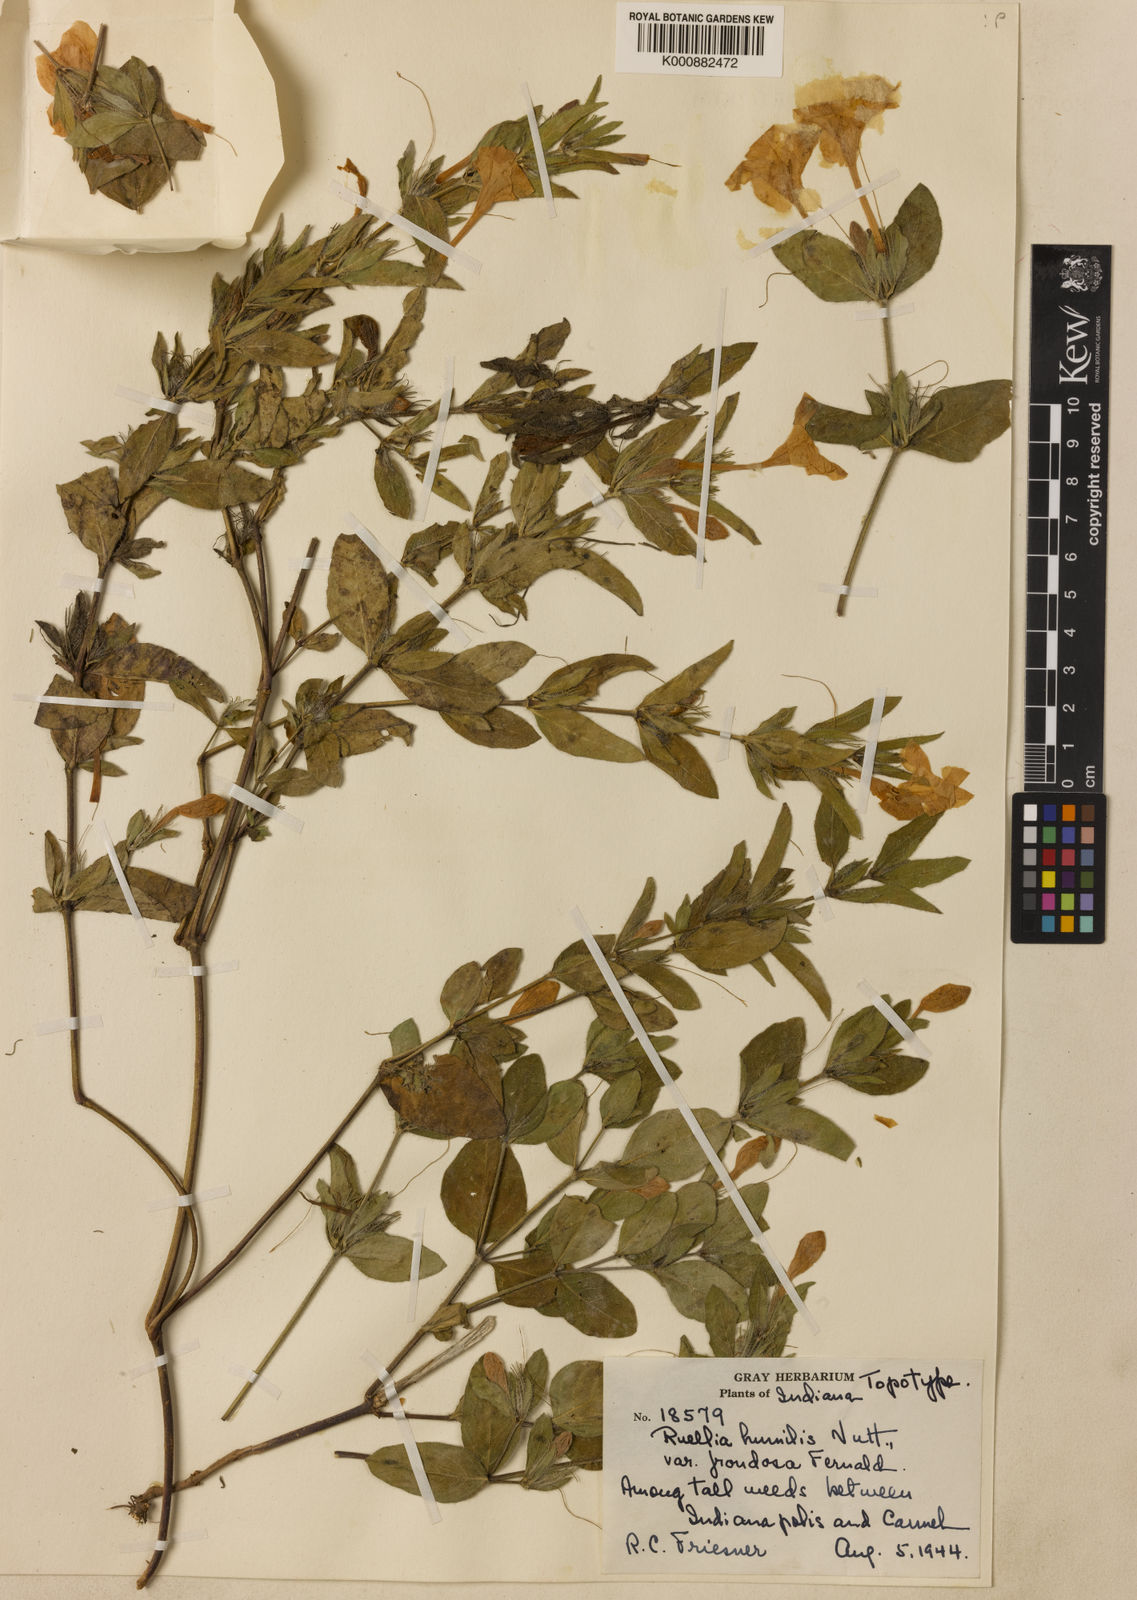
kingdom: Plantae
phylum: Tracheophyta
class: Magnoliopsida
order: Lamiales
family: Acanthaceae
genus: Ruellia
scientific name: Ruellia humilis
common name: Fringe-leaf ruellia
